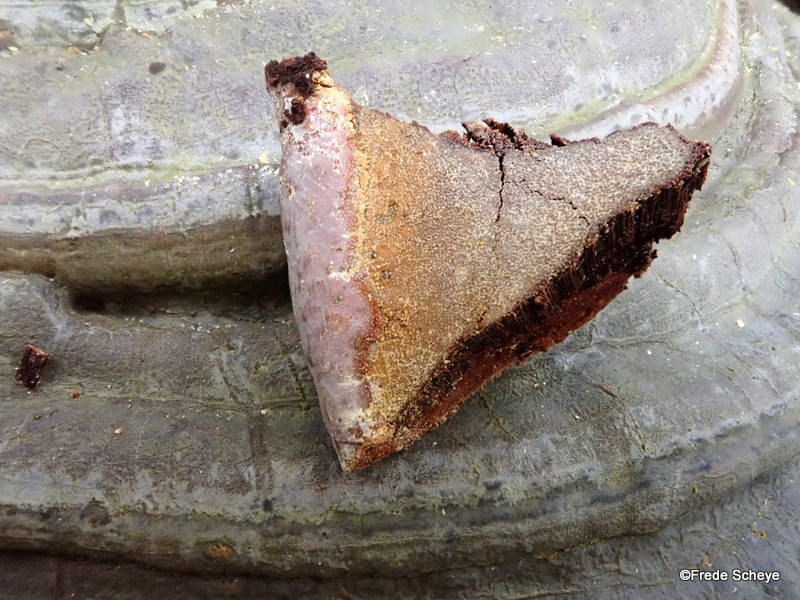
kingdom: Fungi
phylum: Basidiomycota
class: Agaricomycetes
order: Polyporales
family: Polyporaceae
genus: Ganoderma
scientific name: Ganoderma pfeifferi
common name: kobberrød lakporesvamp
